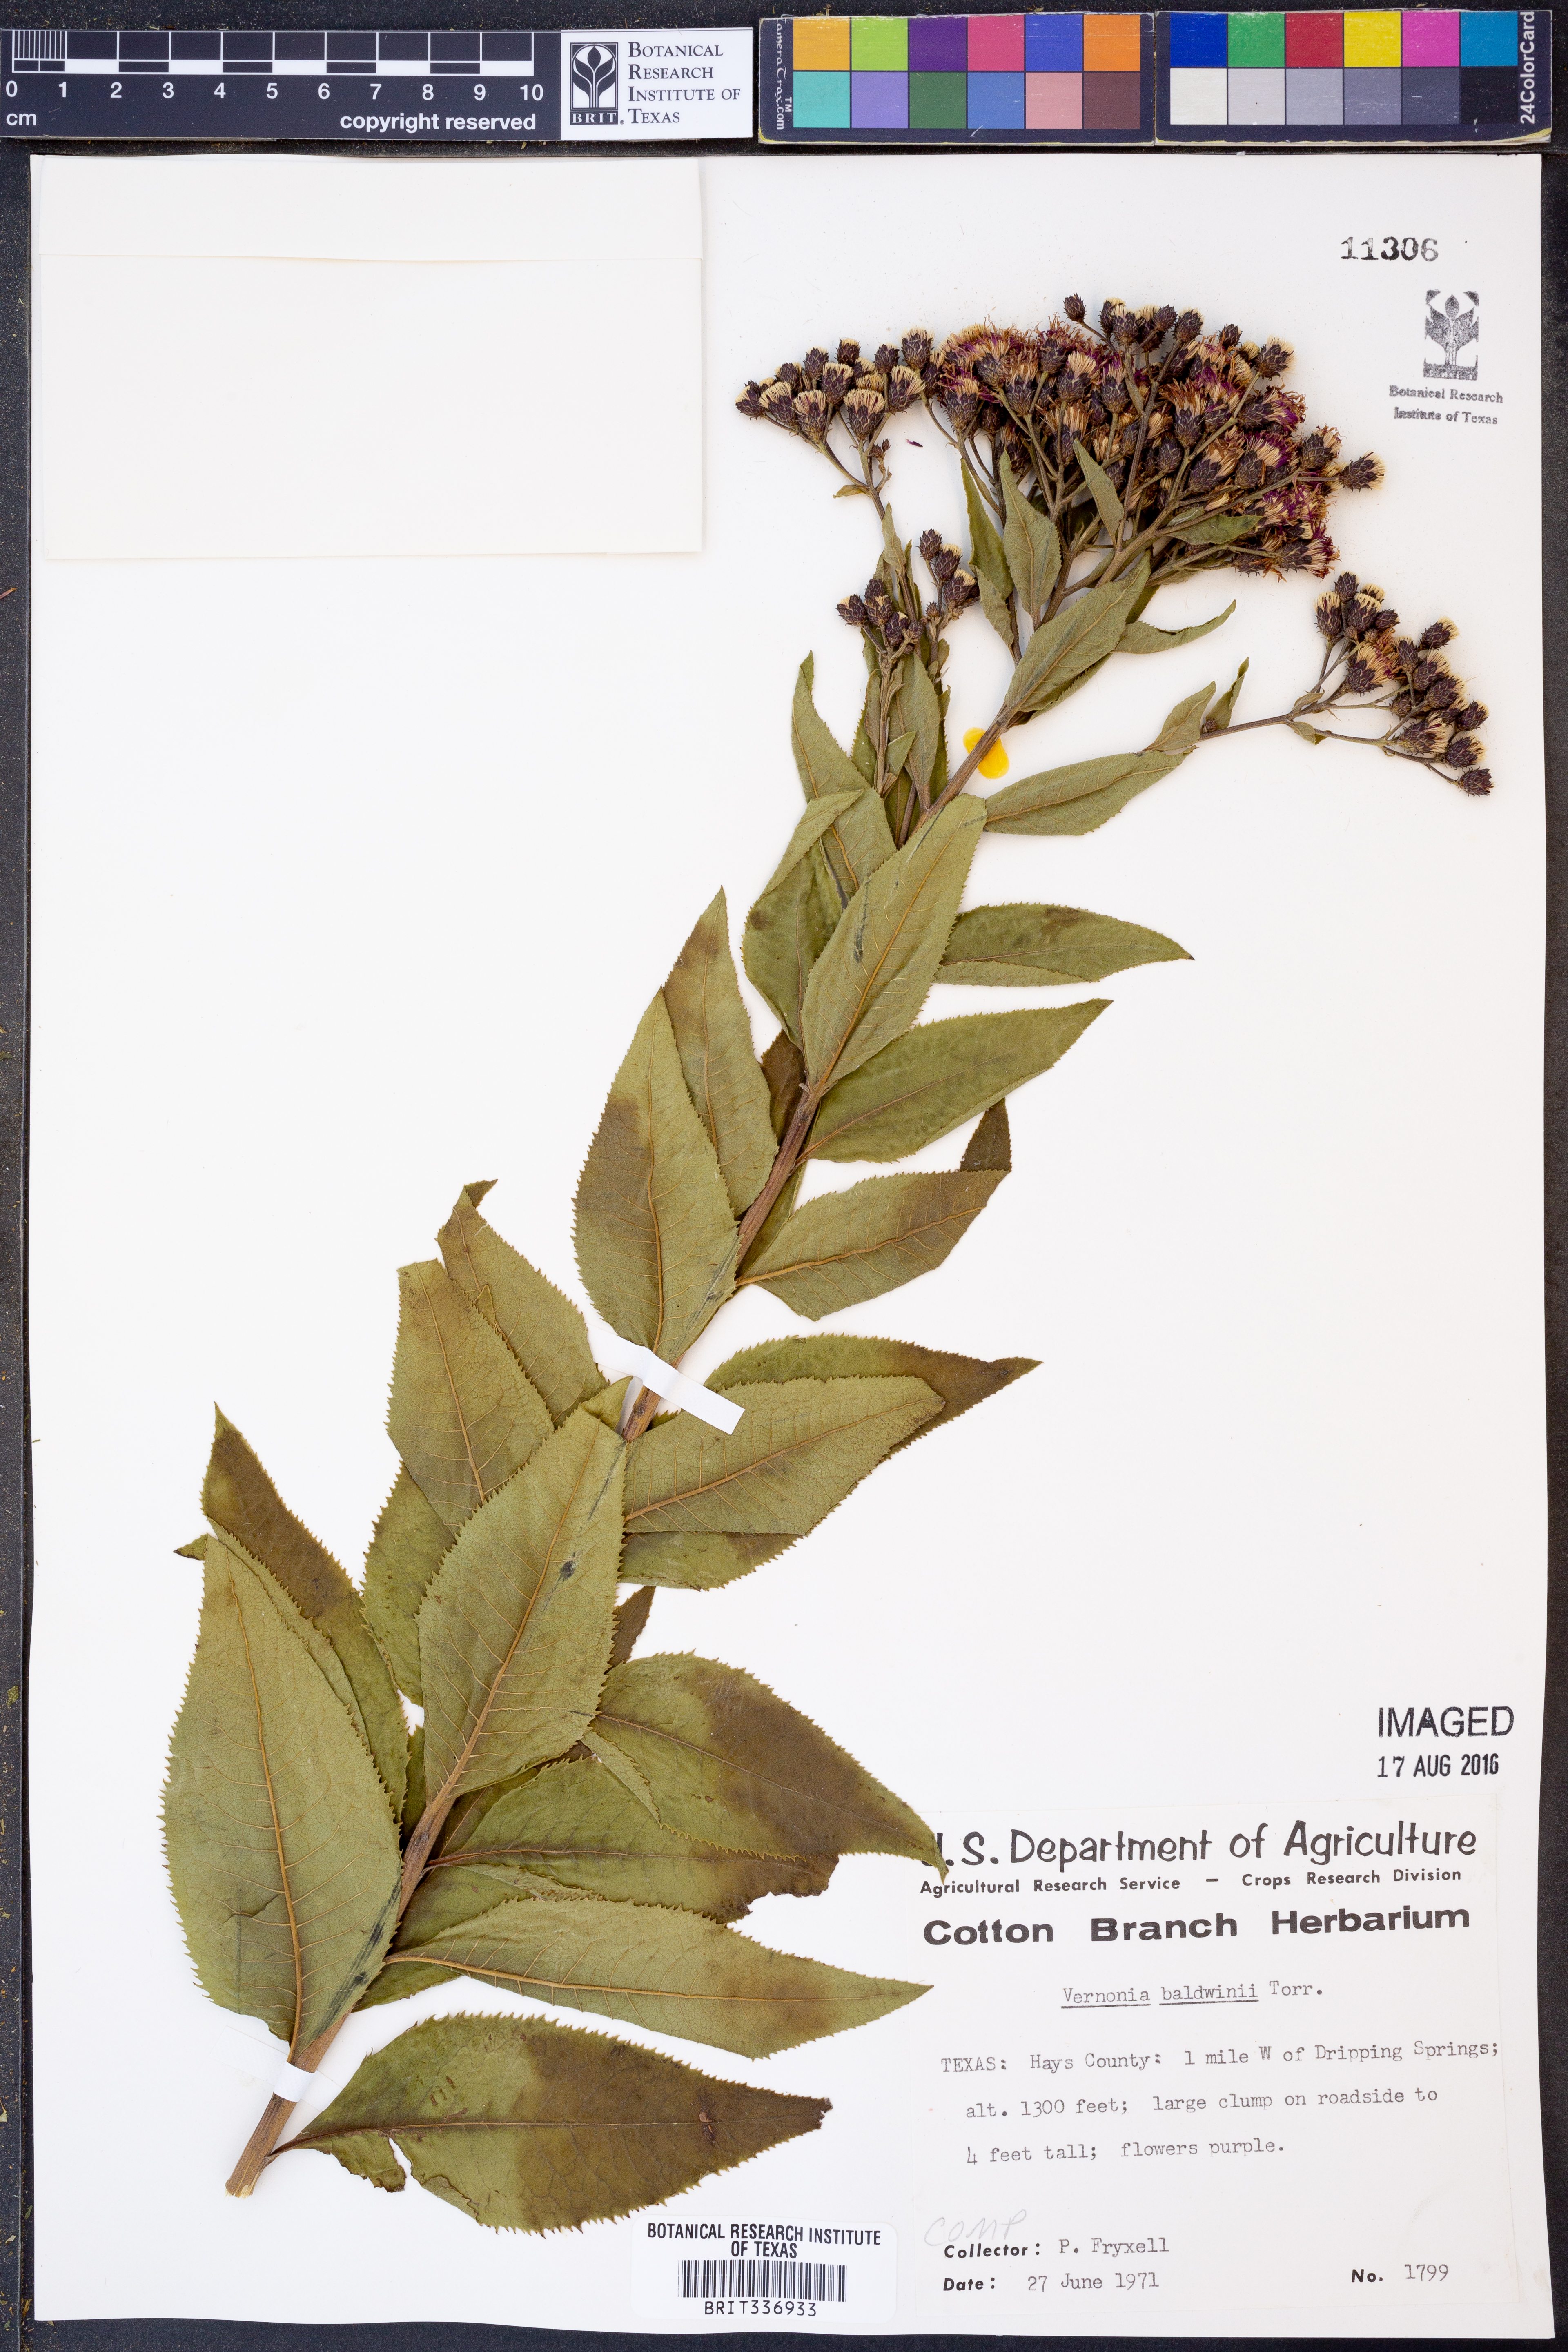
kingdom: Plantae
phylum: Tracheophyta
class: Magnoliopsida
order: Asterales
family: Asteraceae
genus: Vernonia
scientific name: Vernonia baldwinii
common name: Western ironweed
